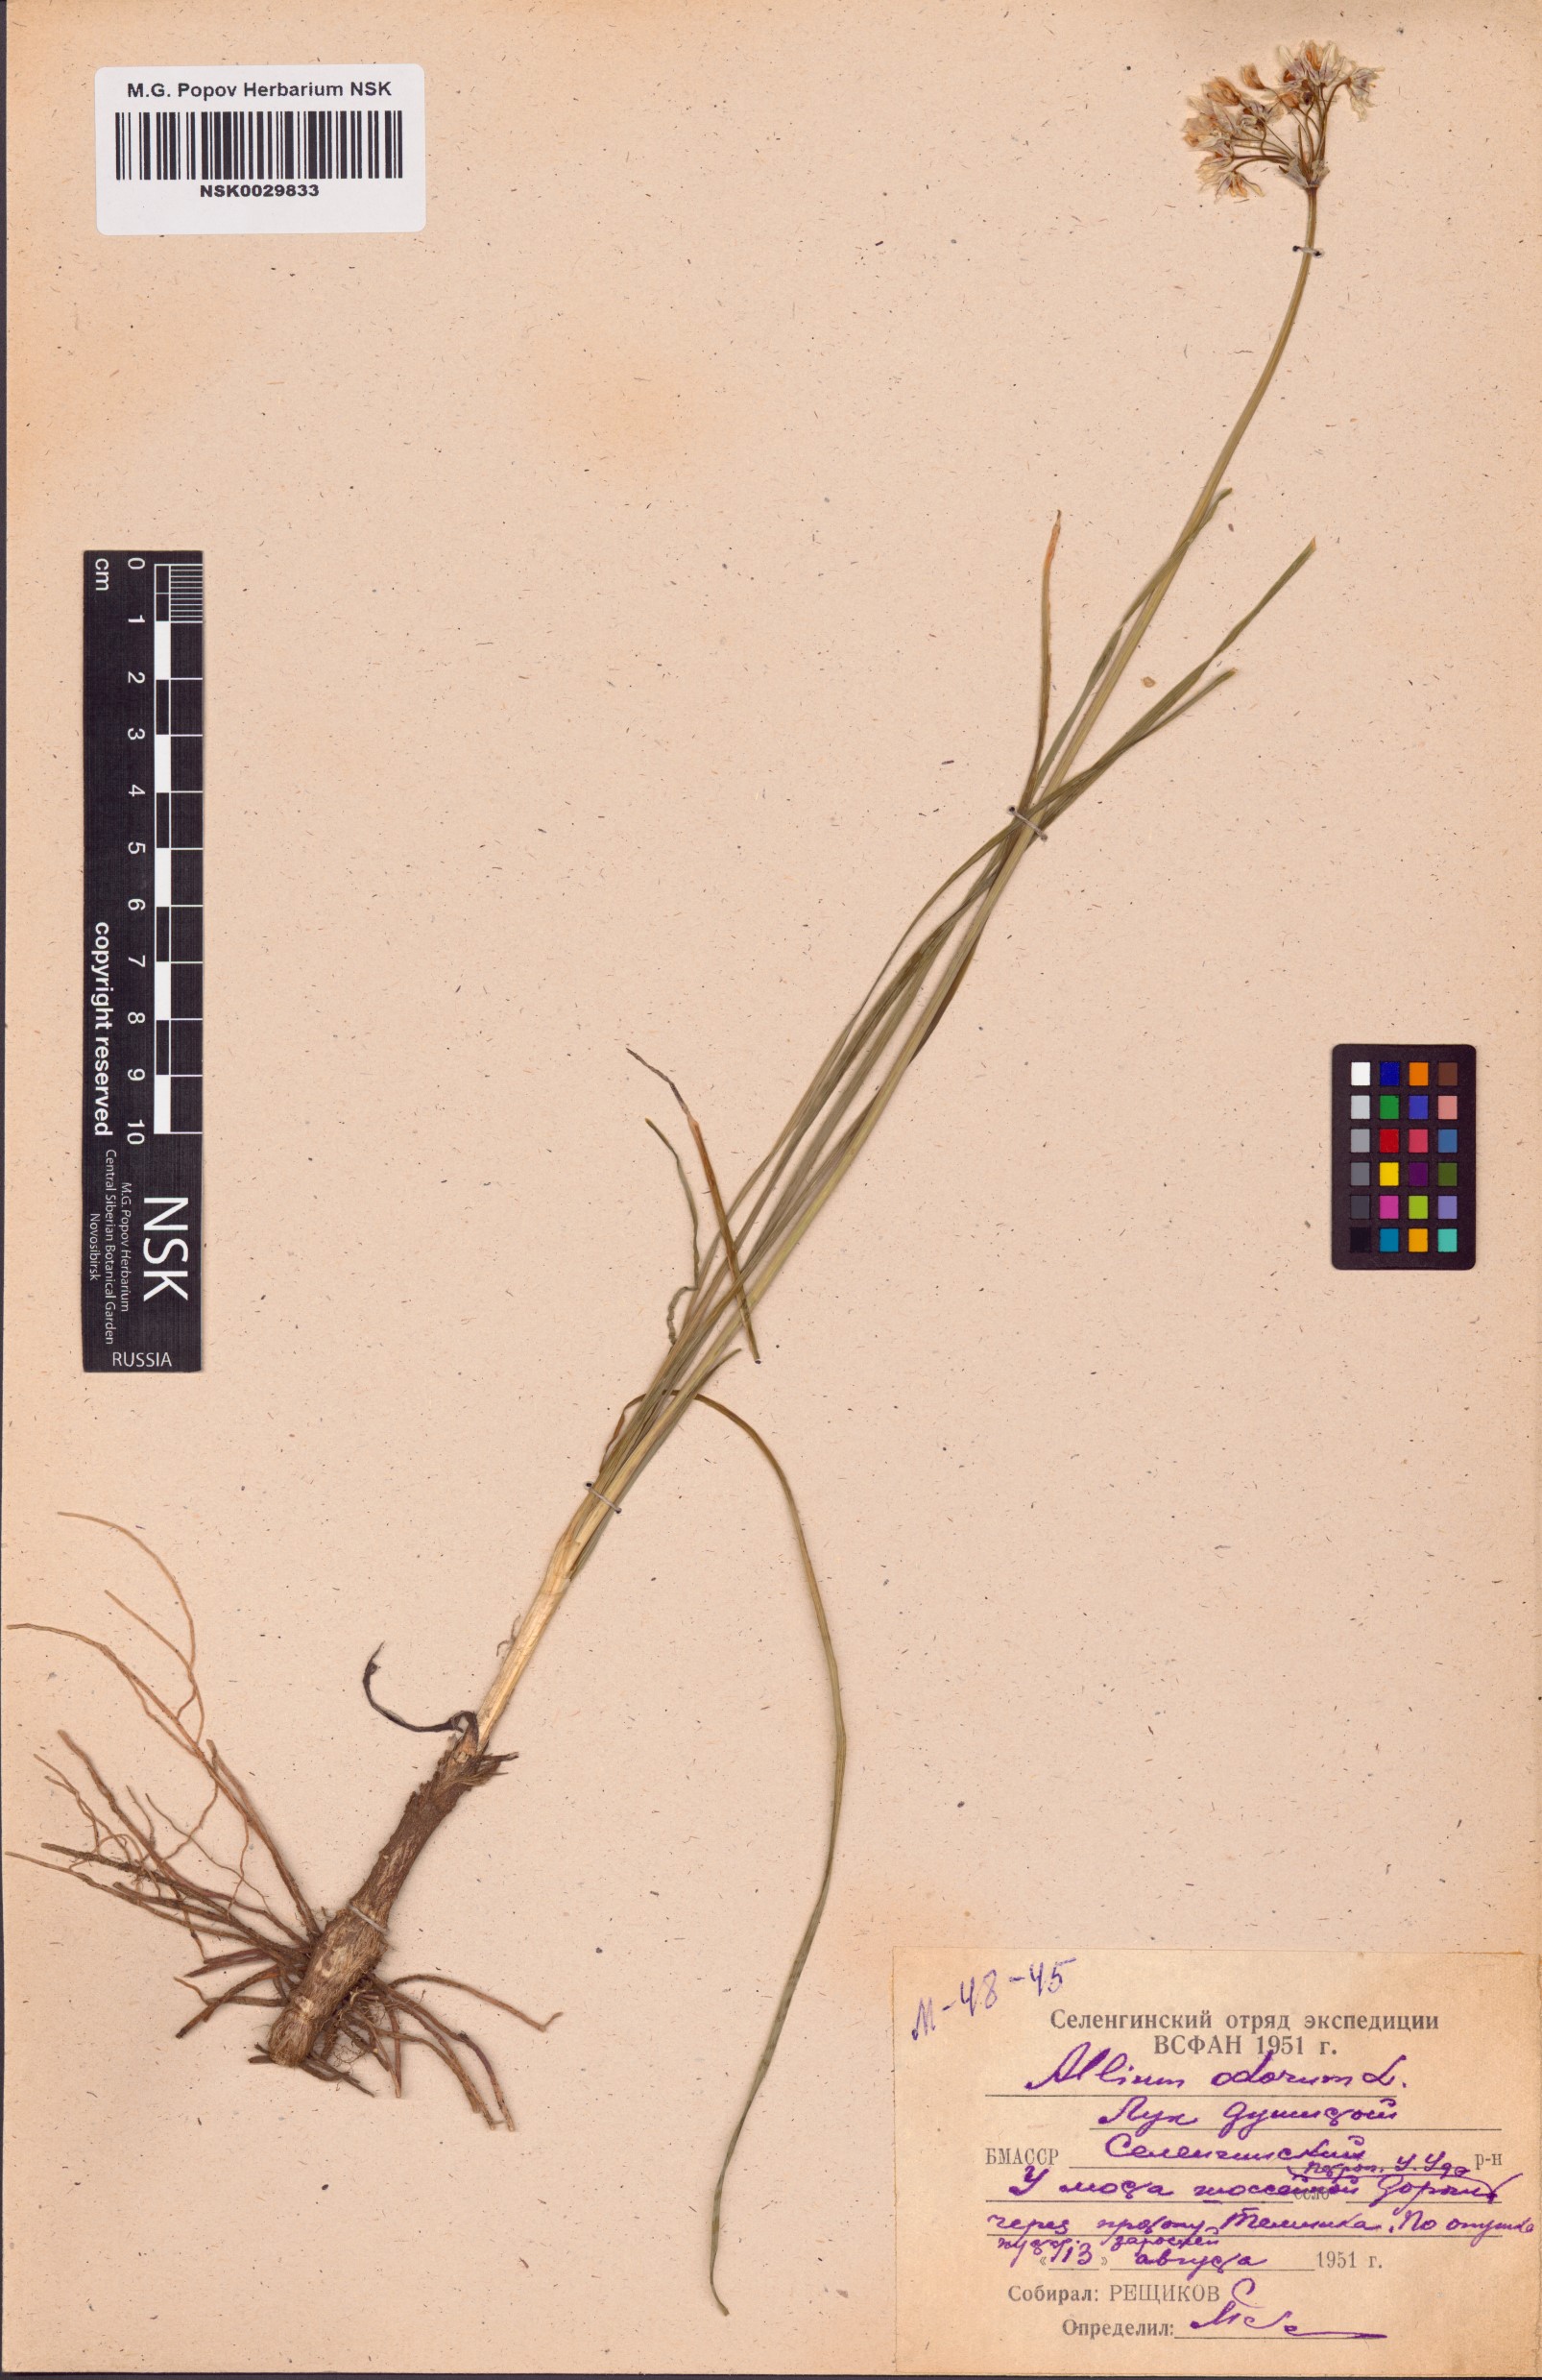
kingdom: Plantae
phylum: Tracheophyta
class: Liliopsida
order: Asparagales
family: Amaryllidaceae
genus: Allium
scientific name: Allium ramosum
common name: Fragrant garlic
